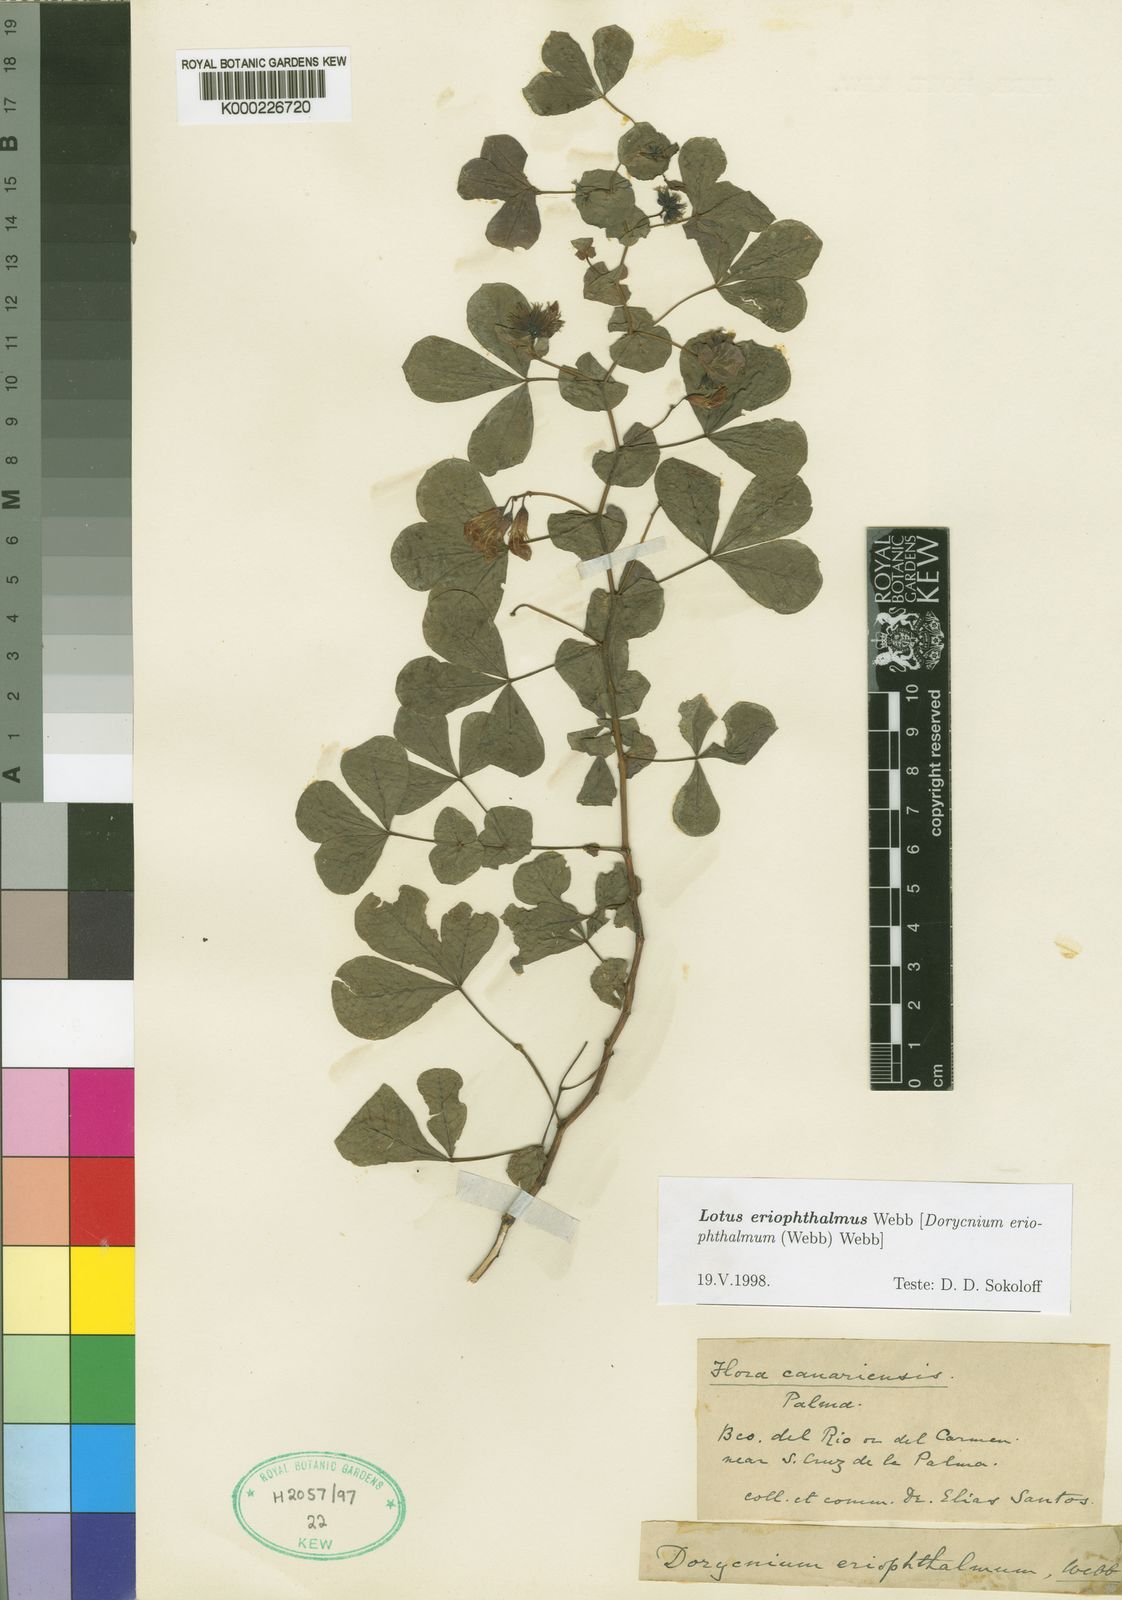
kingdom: Plantae
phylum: Tracheophyta
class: Magnoliopsida
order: Fabales
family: Fabaceae
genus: Lotus
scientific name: Lotus eriophthalmus
